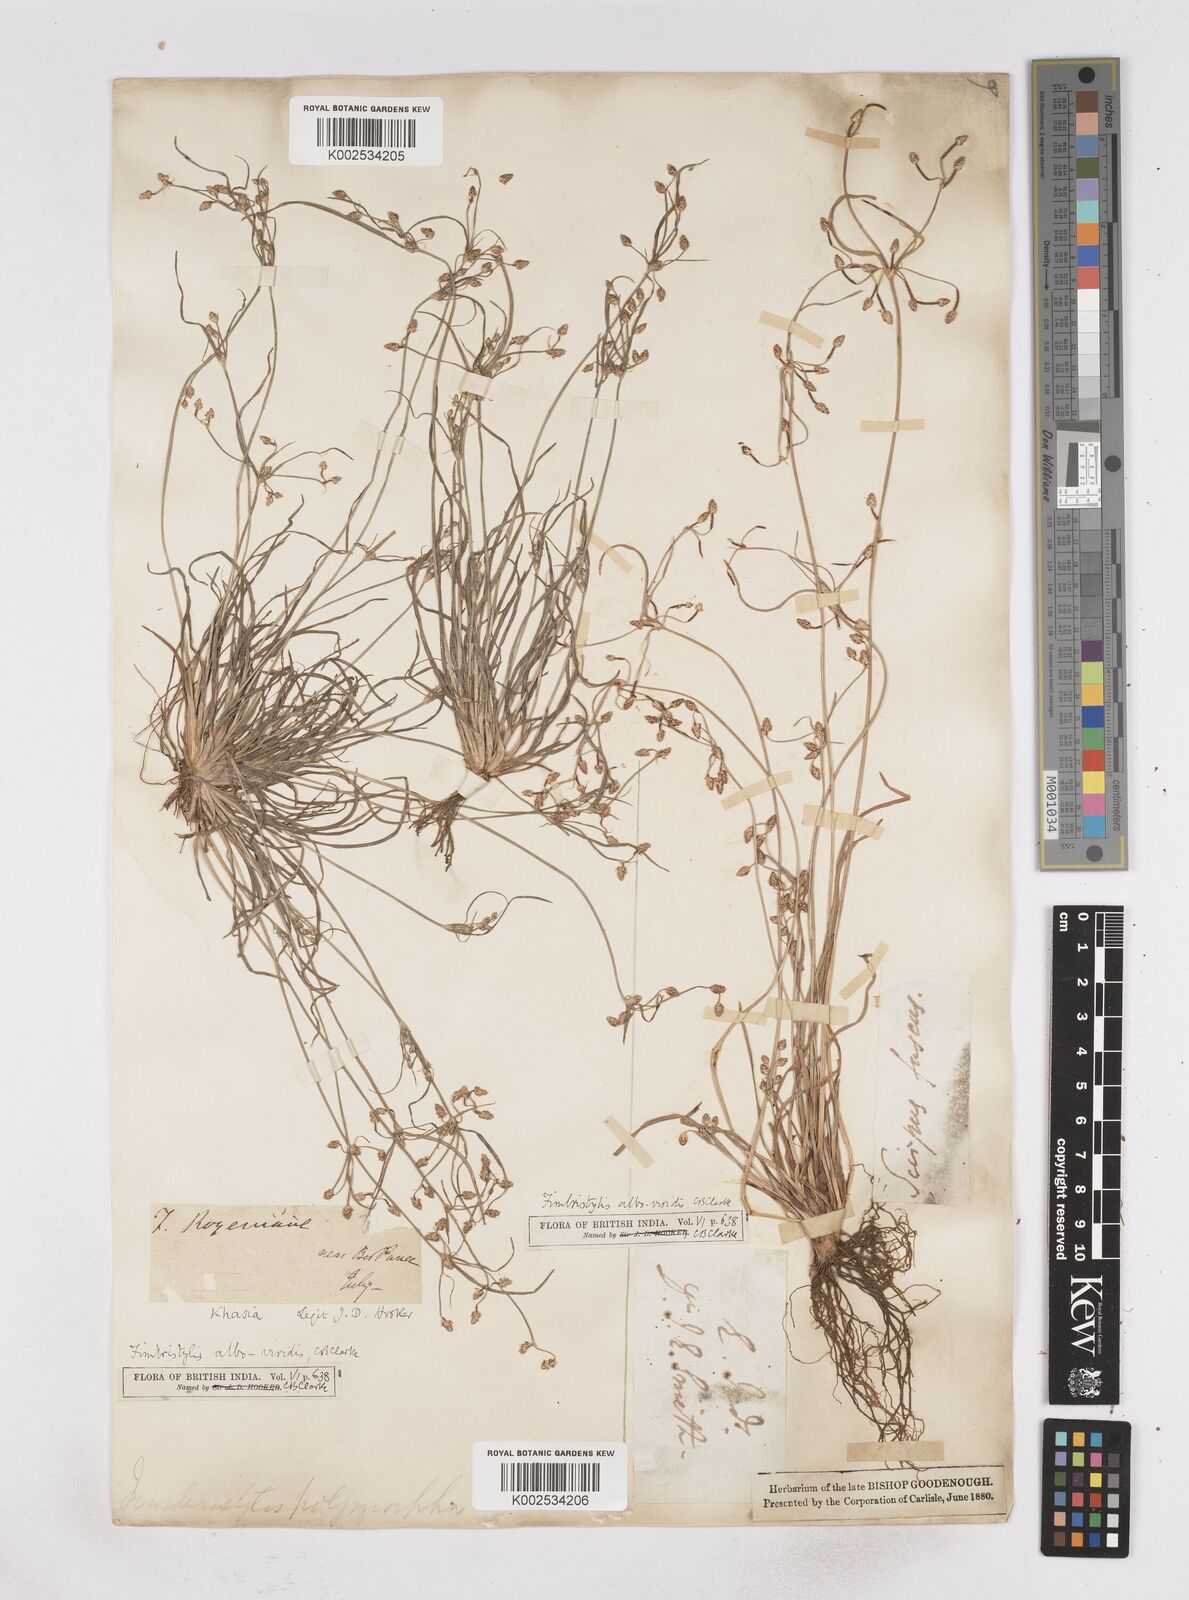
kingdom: Plantae
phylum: Tracheophyta
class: Liliopsida
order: Poales
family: Cyperaceae
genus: Fimbristylis
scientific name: Fimbristylis alboviridis
